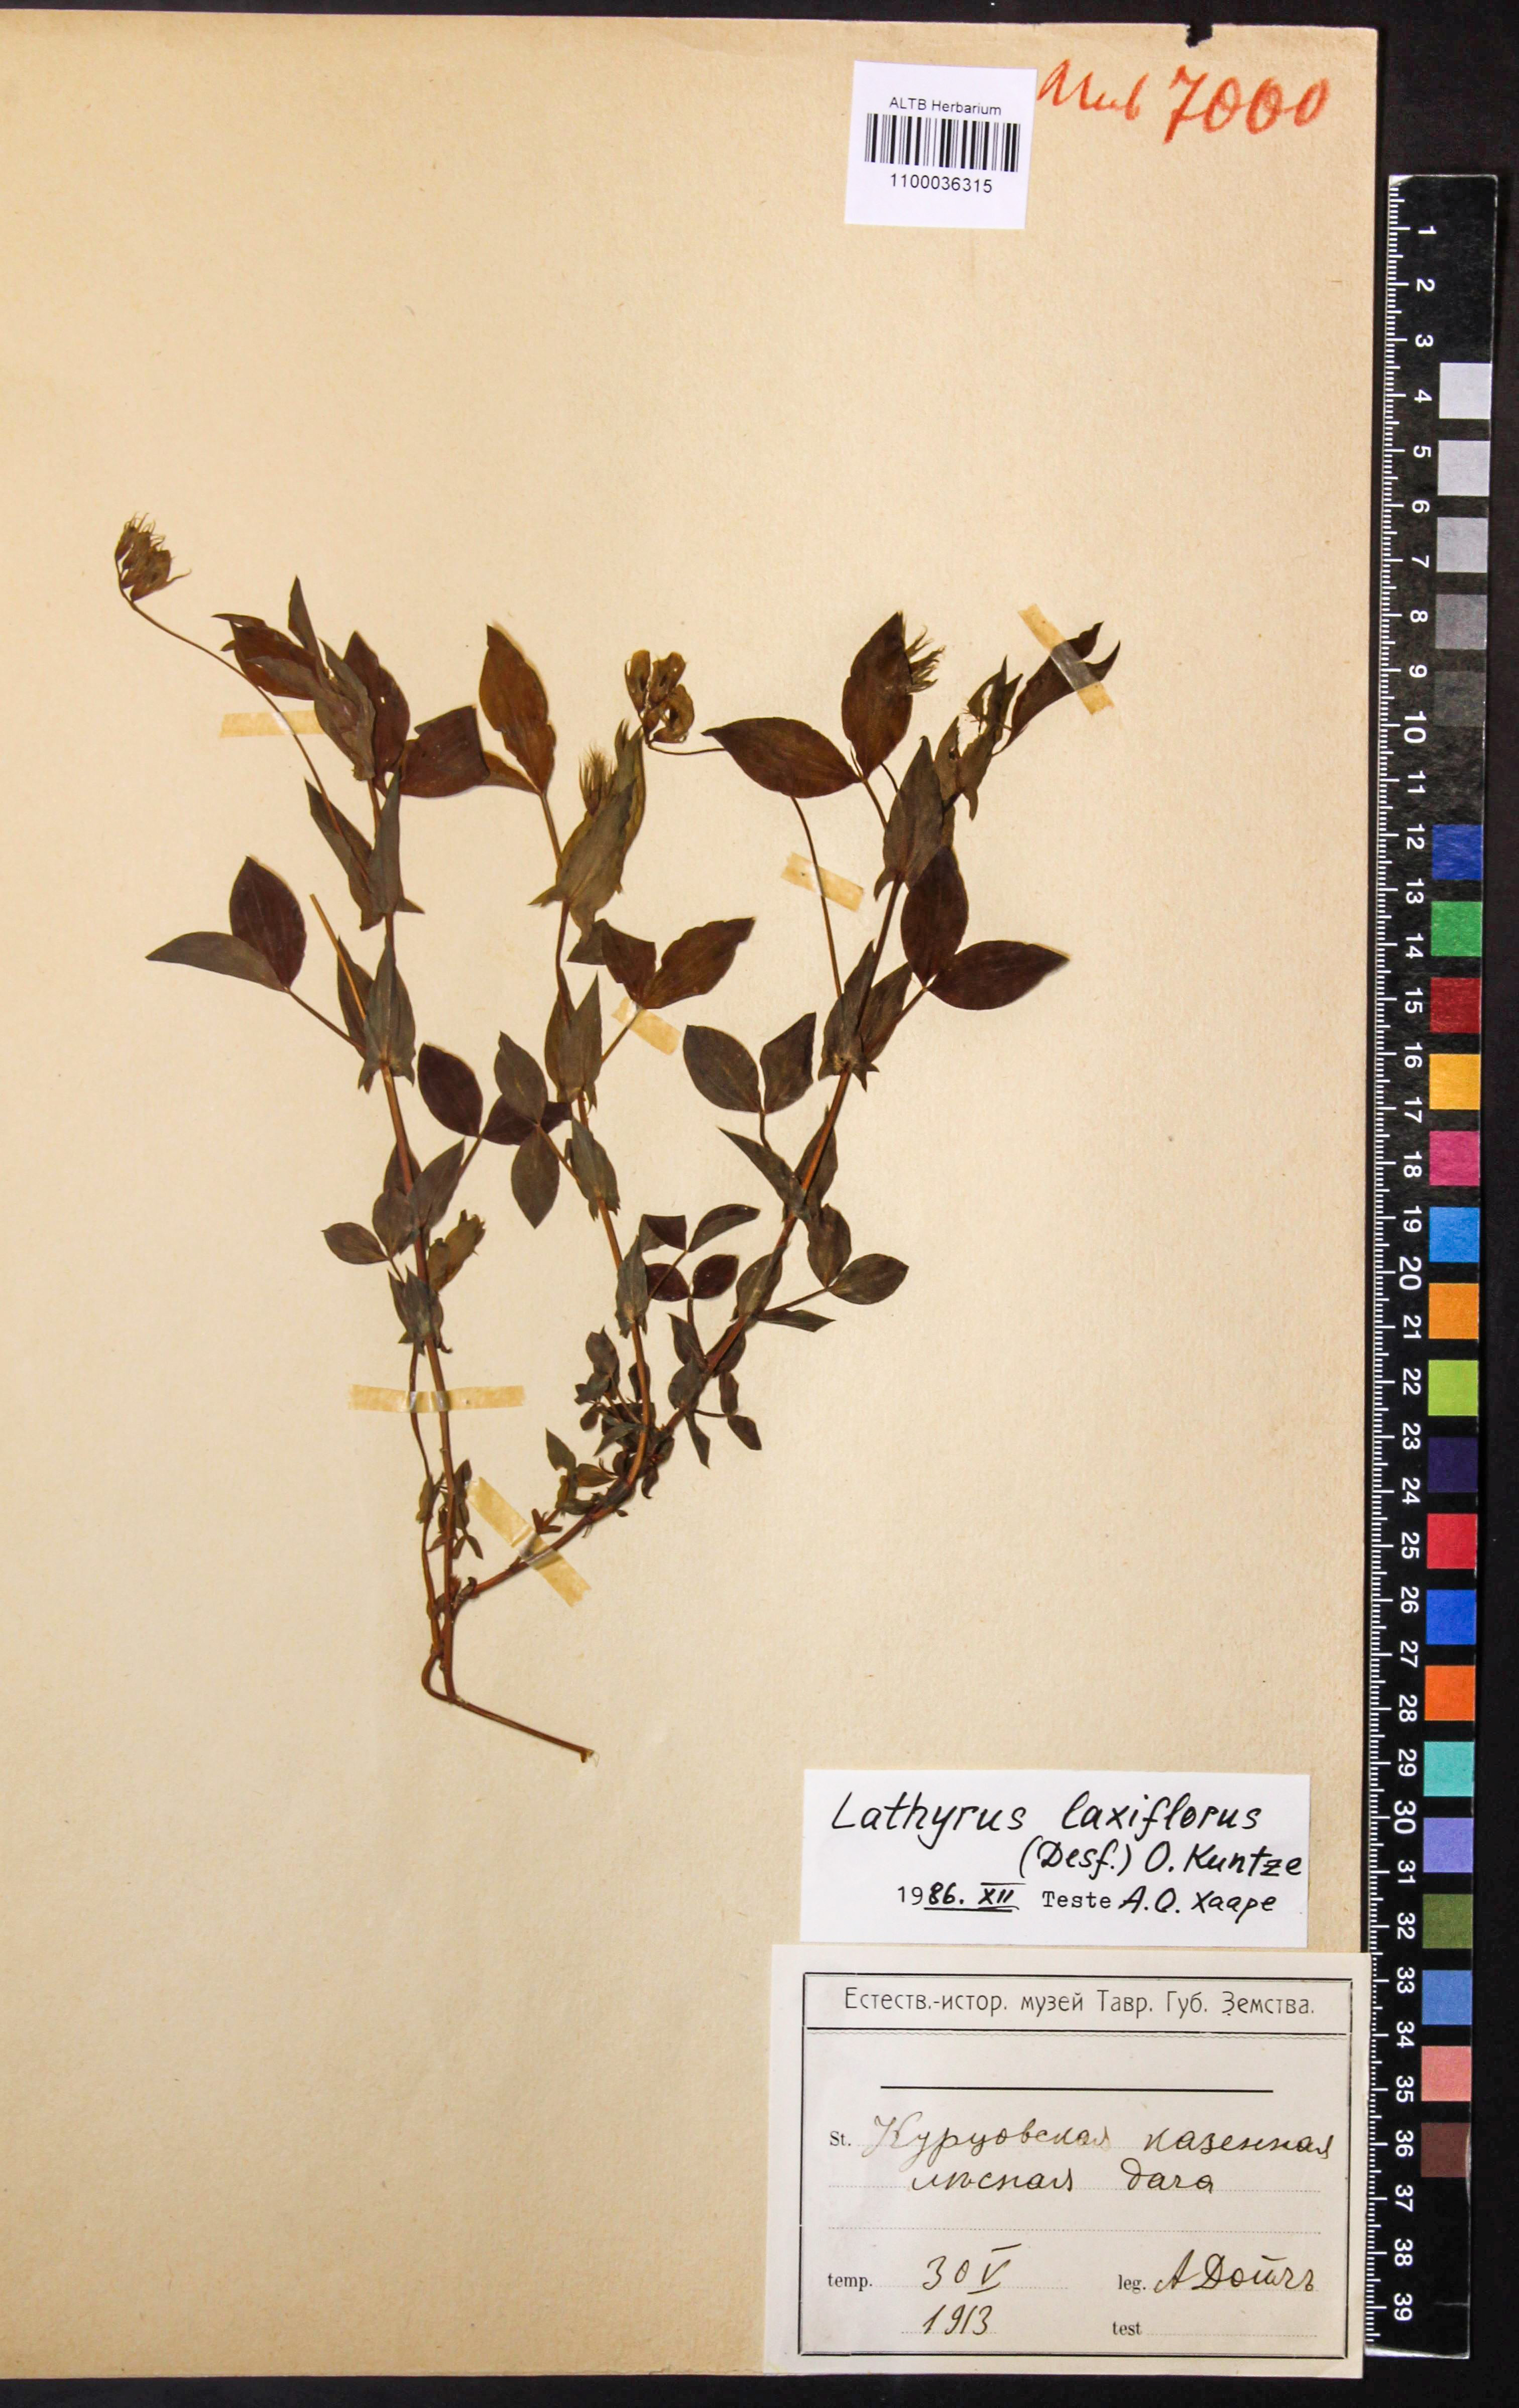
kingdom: Plantae
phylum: Tracheophyta
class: Magnoliopsida
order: Fabales
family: Fabaceae
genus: Lathyrus
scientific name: Lathyrus laxiflorus
